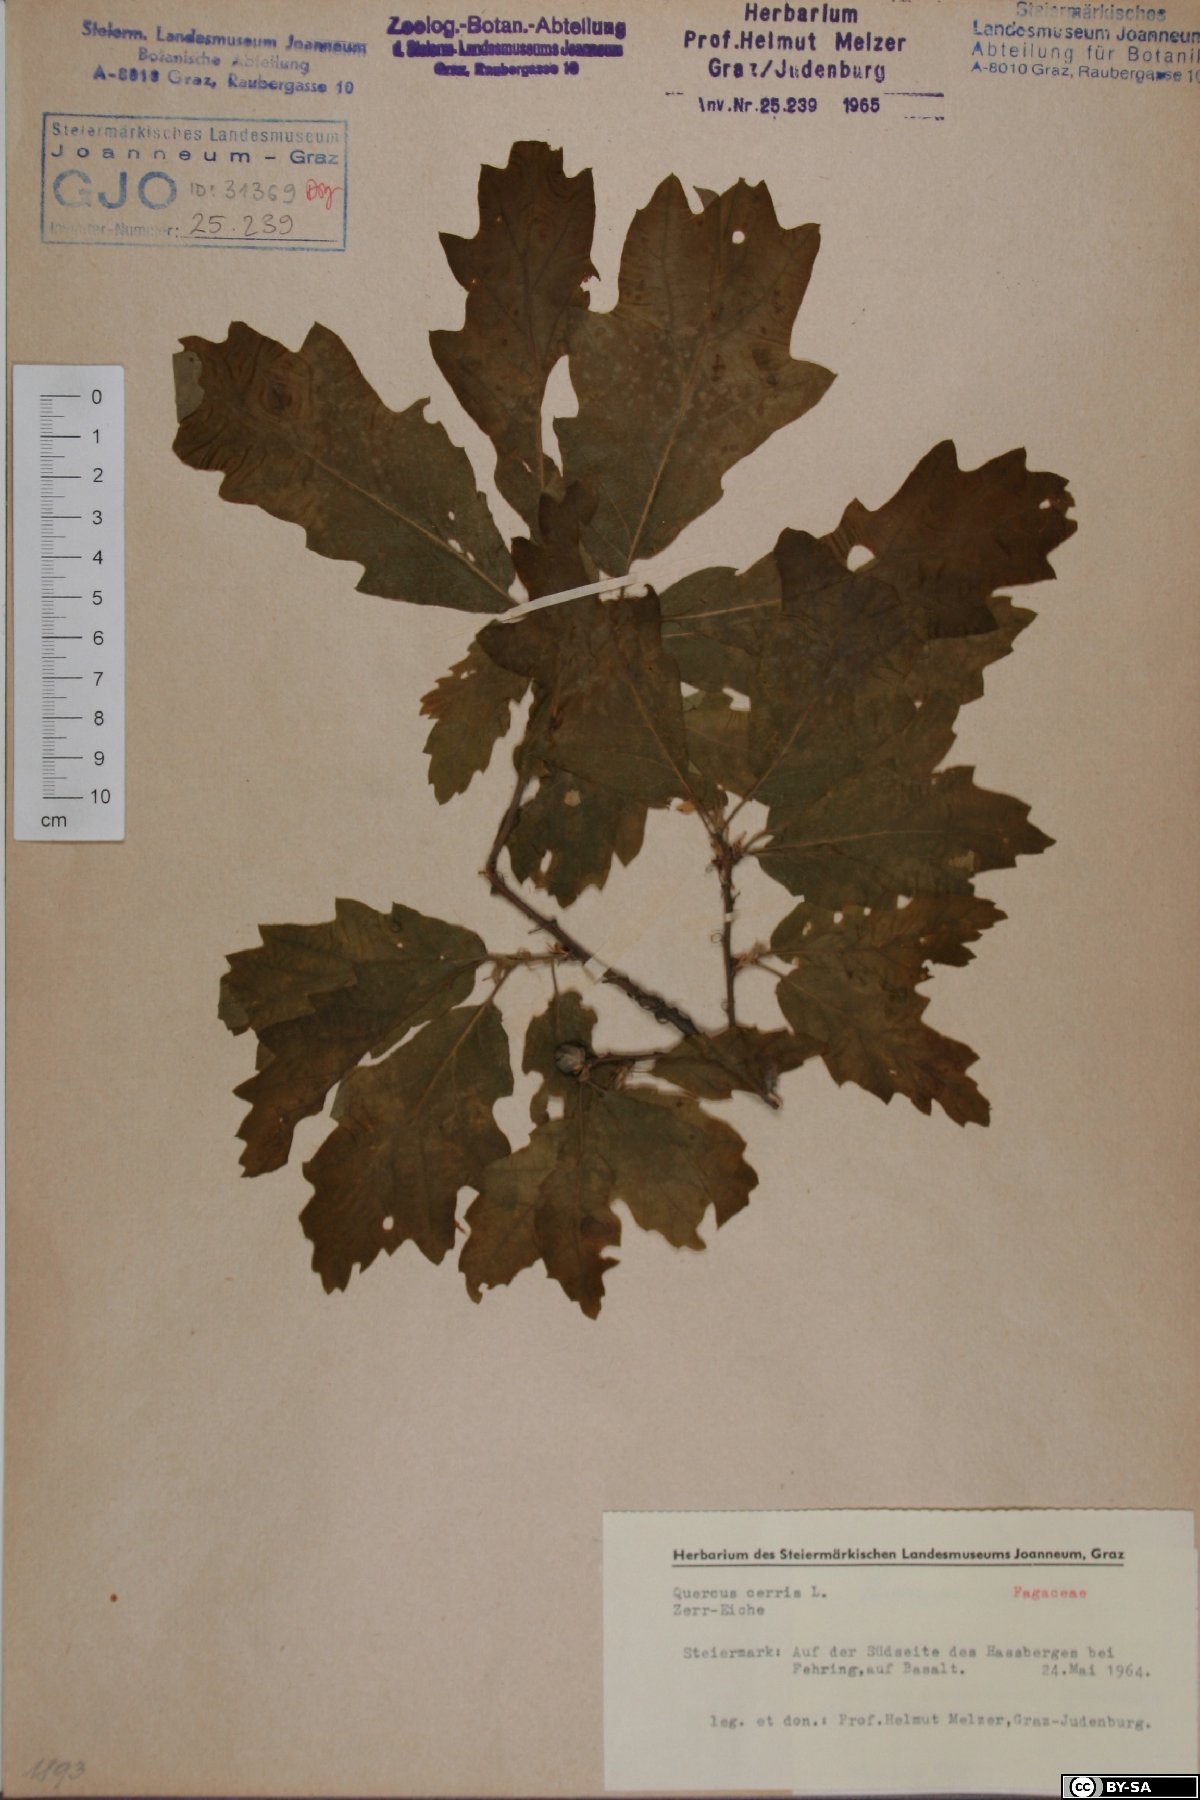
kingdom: Plantae
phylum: Tracheophyta
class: Magnoliopsida
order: Fagales
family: Fagaceae
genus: Quercus
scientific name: Quercus cerris
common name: Turkey oak
